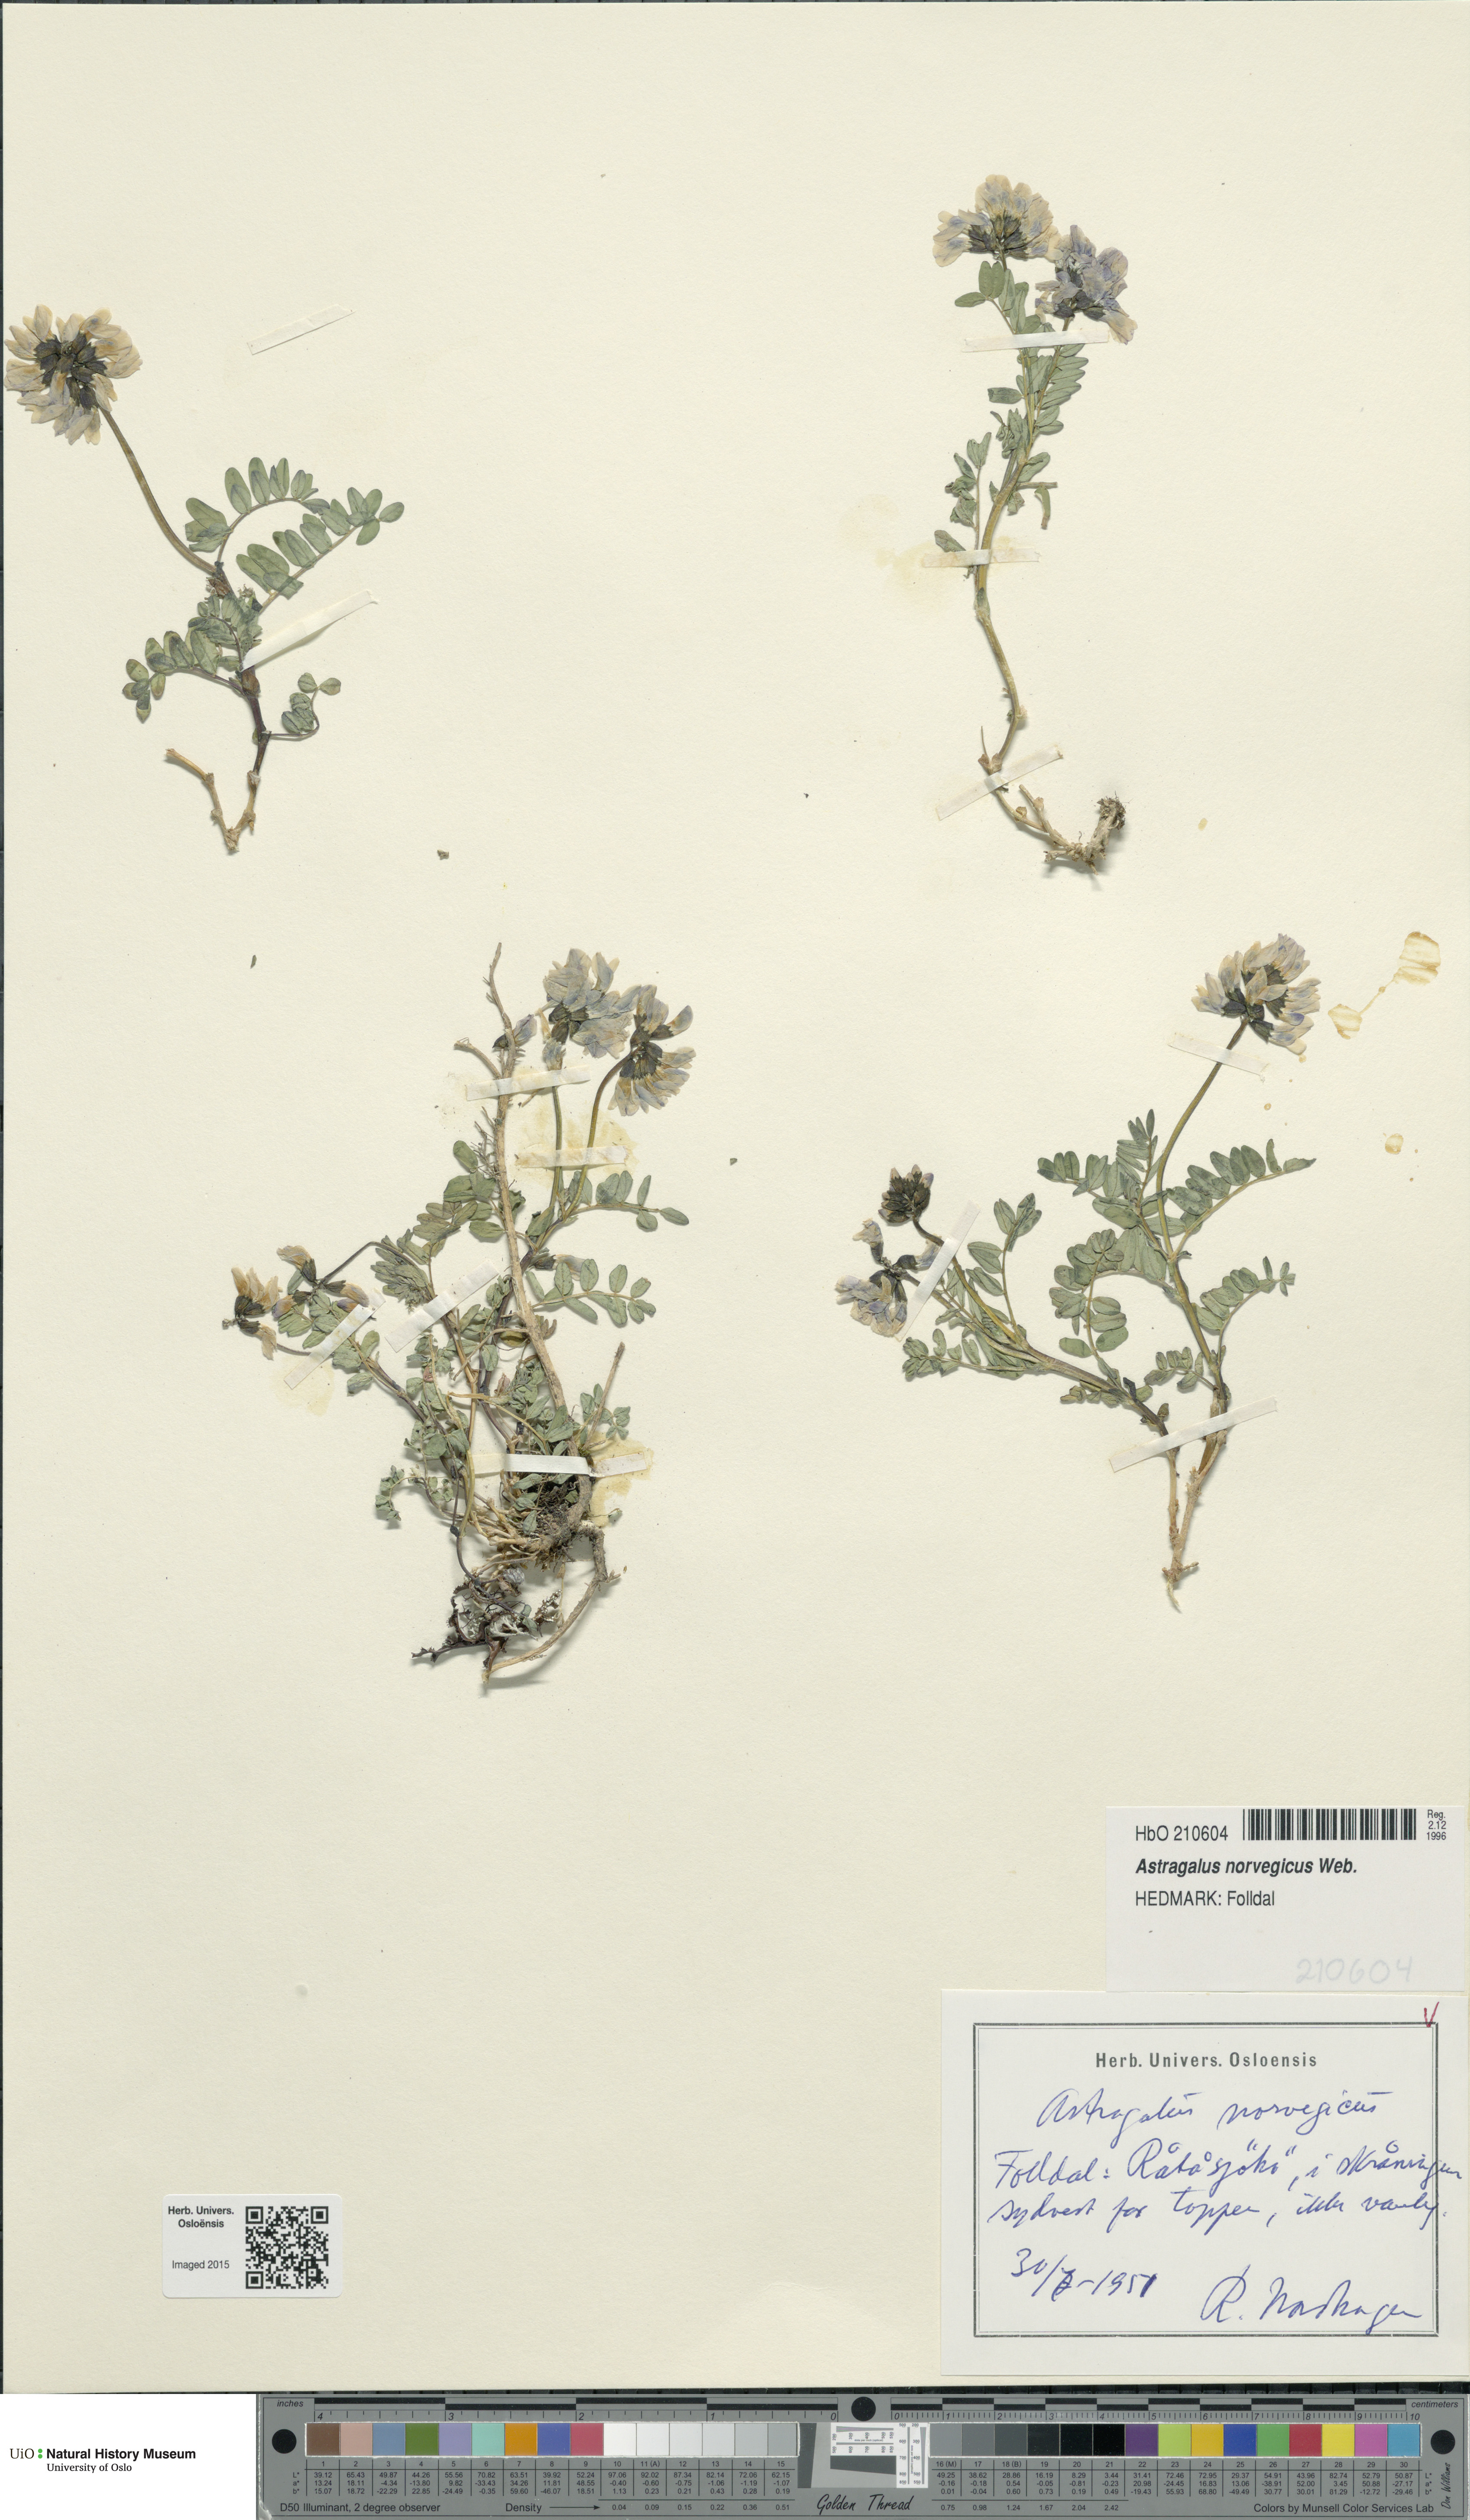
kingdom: Plantae
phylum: Tracheophyta
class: Magnoliopsida
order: Fabales
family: Fabaceae
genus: Astragalus
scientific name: Astragalus norvegicus
